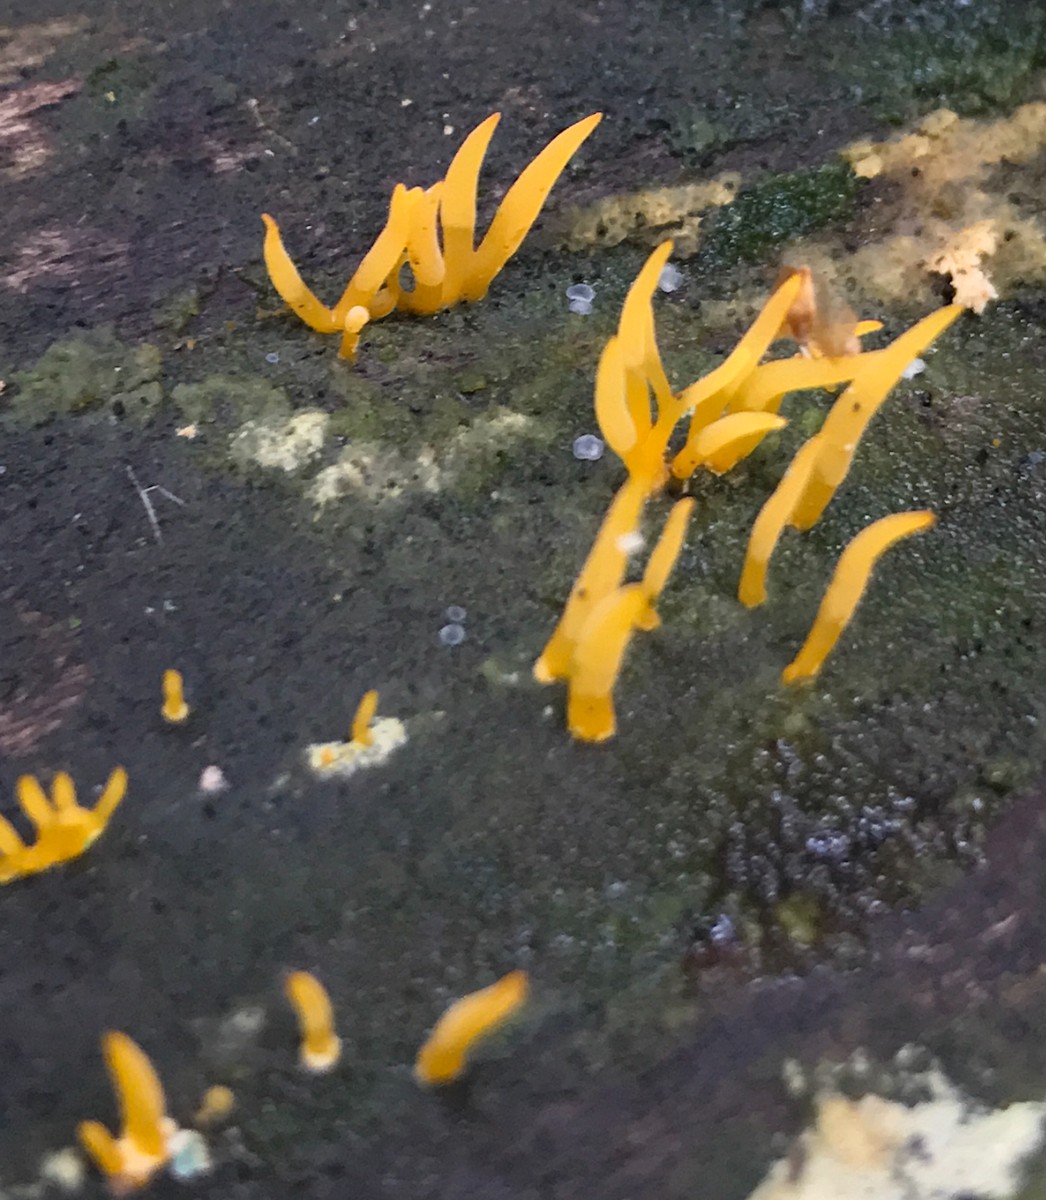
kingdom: Fungi
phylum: Basidiomycota
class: Dacrymycetes
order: Dacrymycetales
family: Dacrymycetaceae
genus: Calocera
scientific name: Calocera cornea
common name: liden guldgaffel
